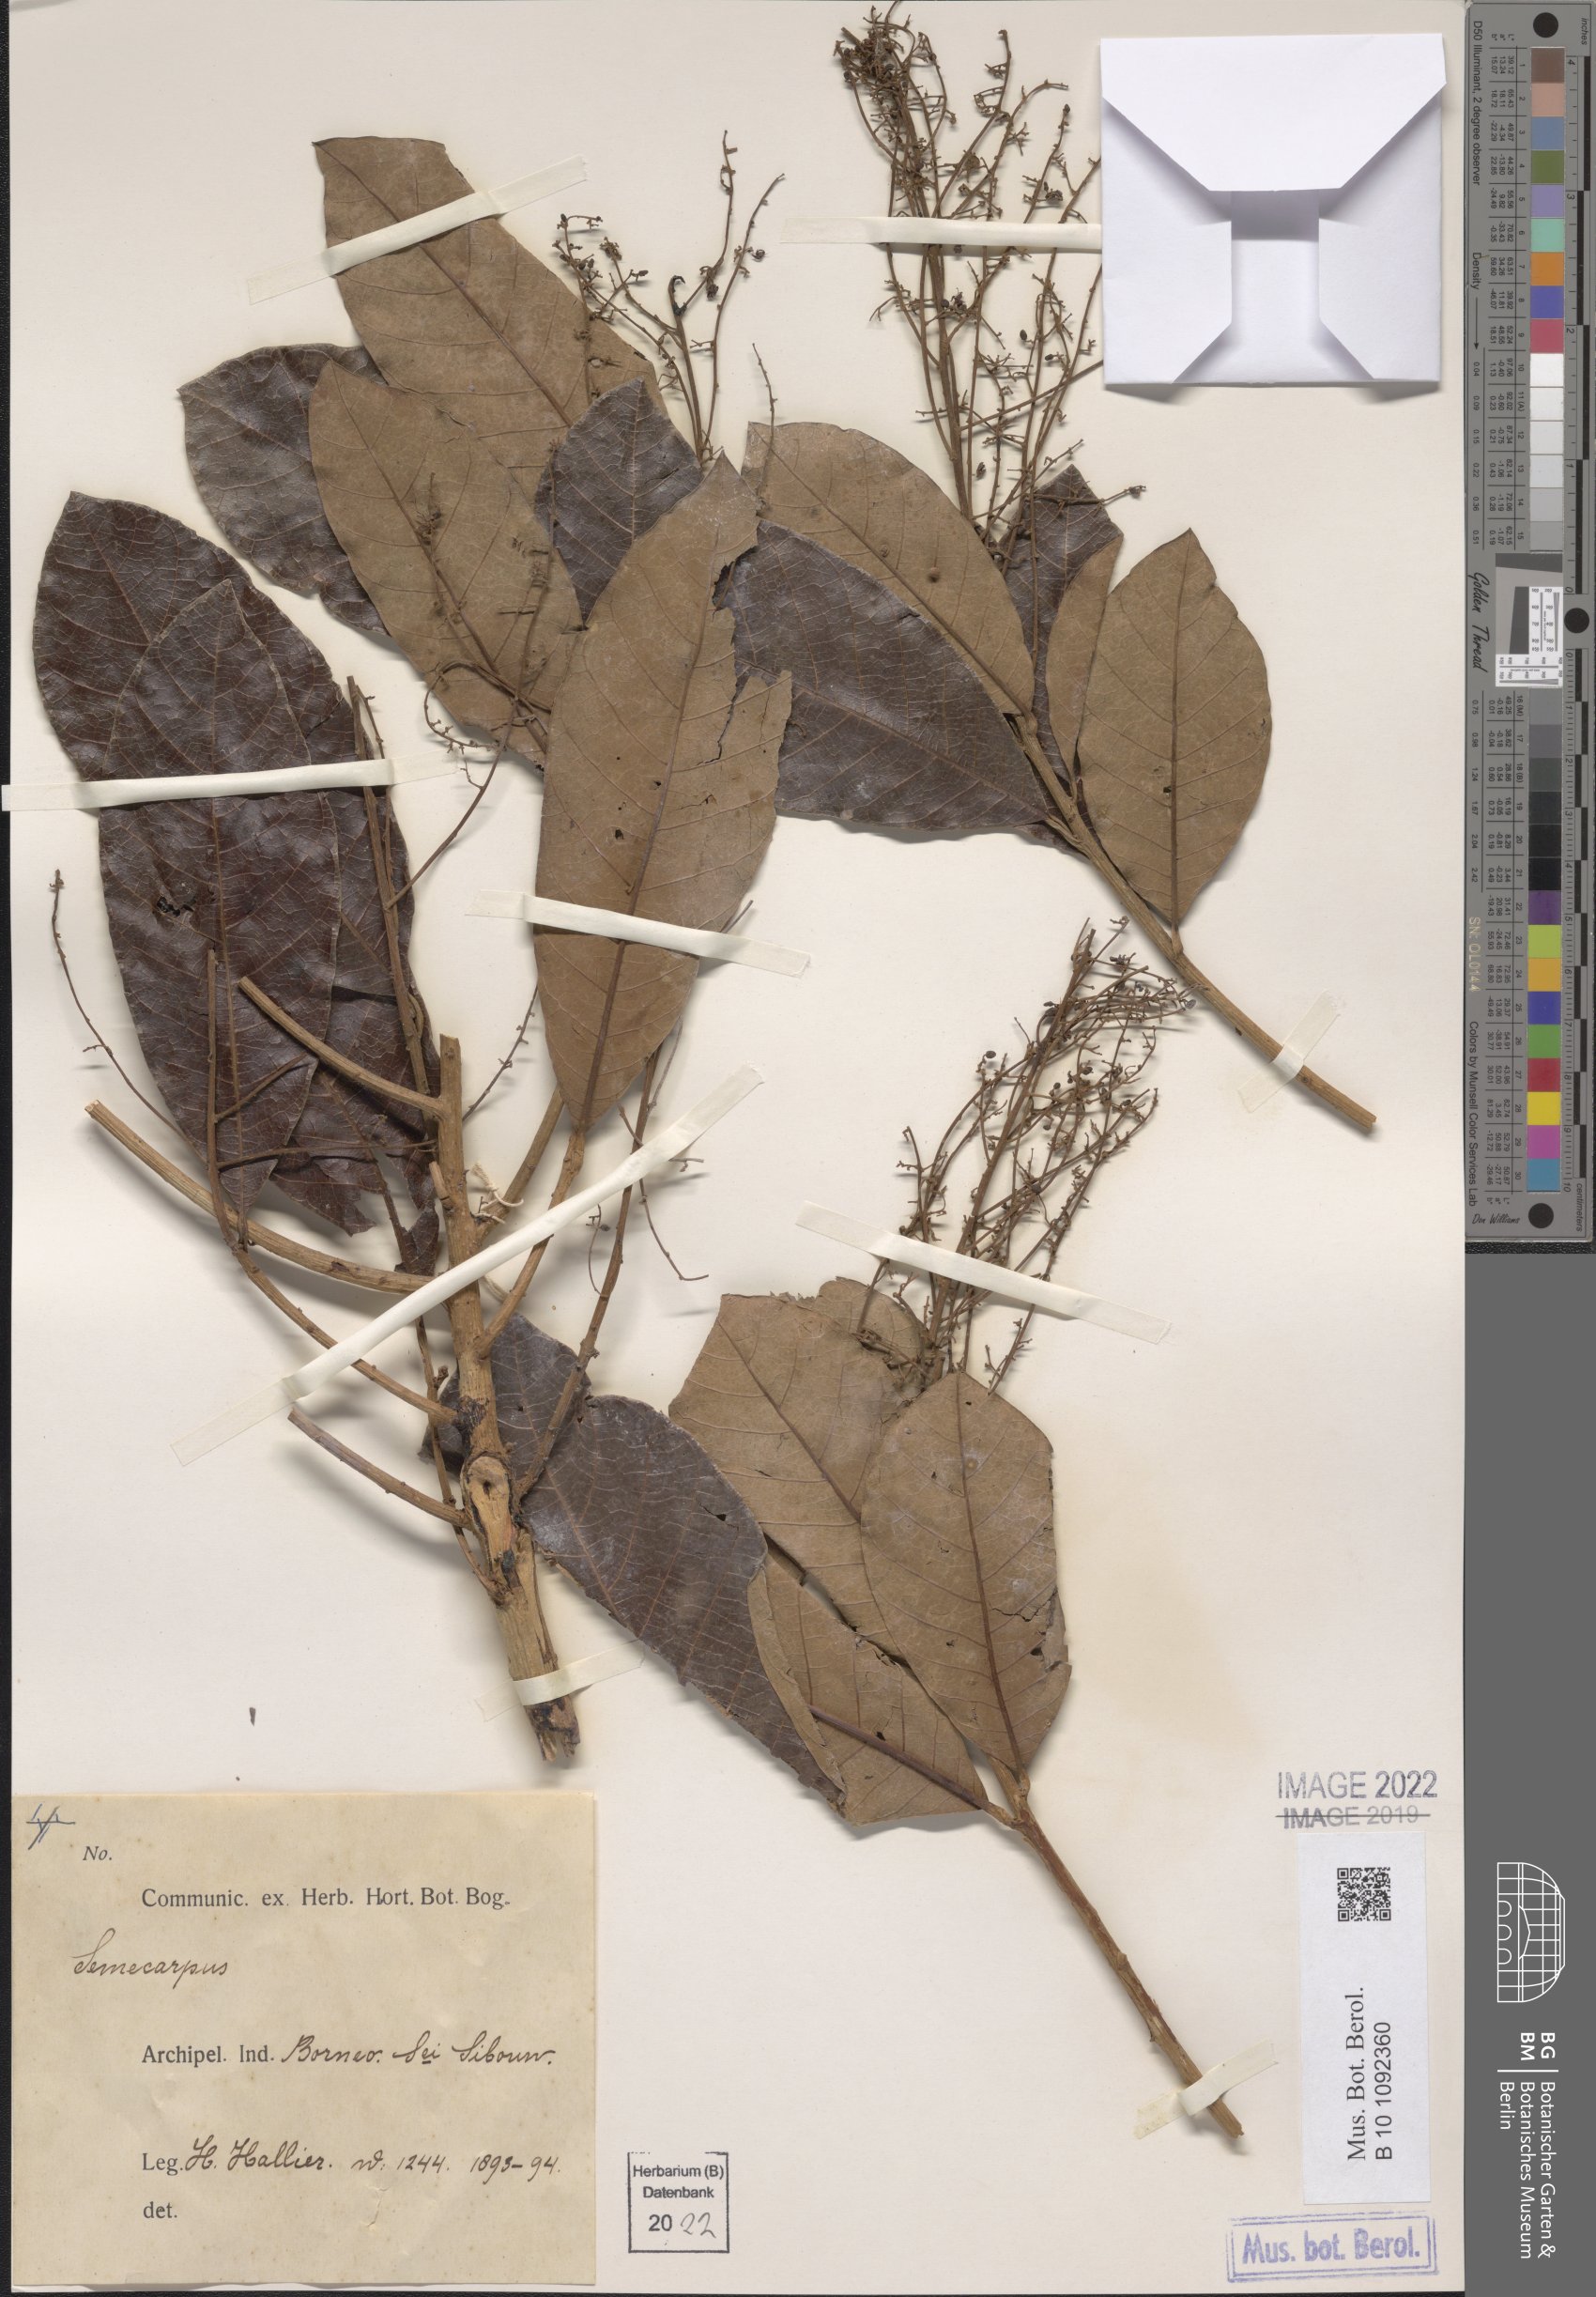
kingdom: Plantae
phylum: Tracheophyta
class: Magnoliopsida
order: Sapindales
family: Anacardiaceae
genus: Semecarpus
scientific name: Semecarpus
